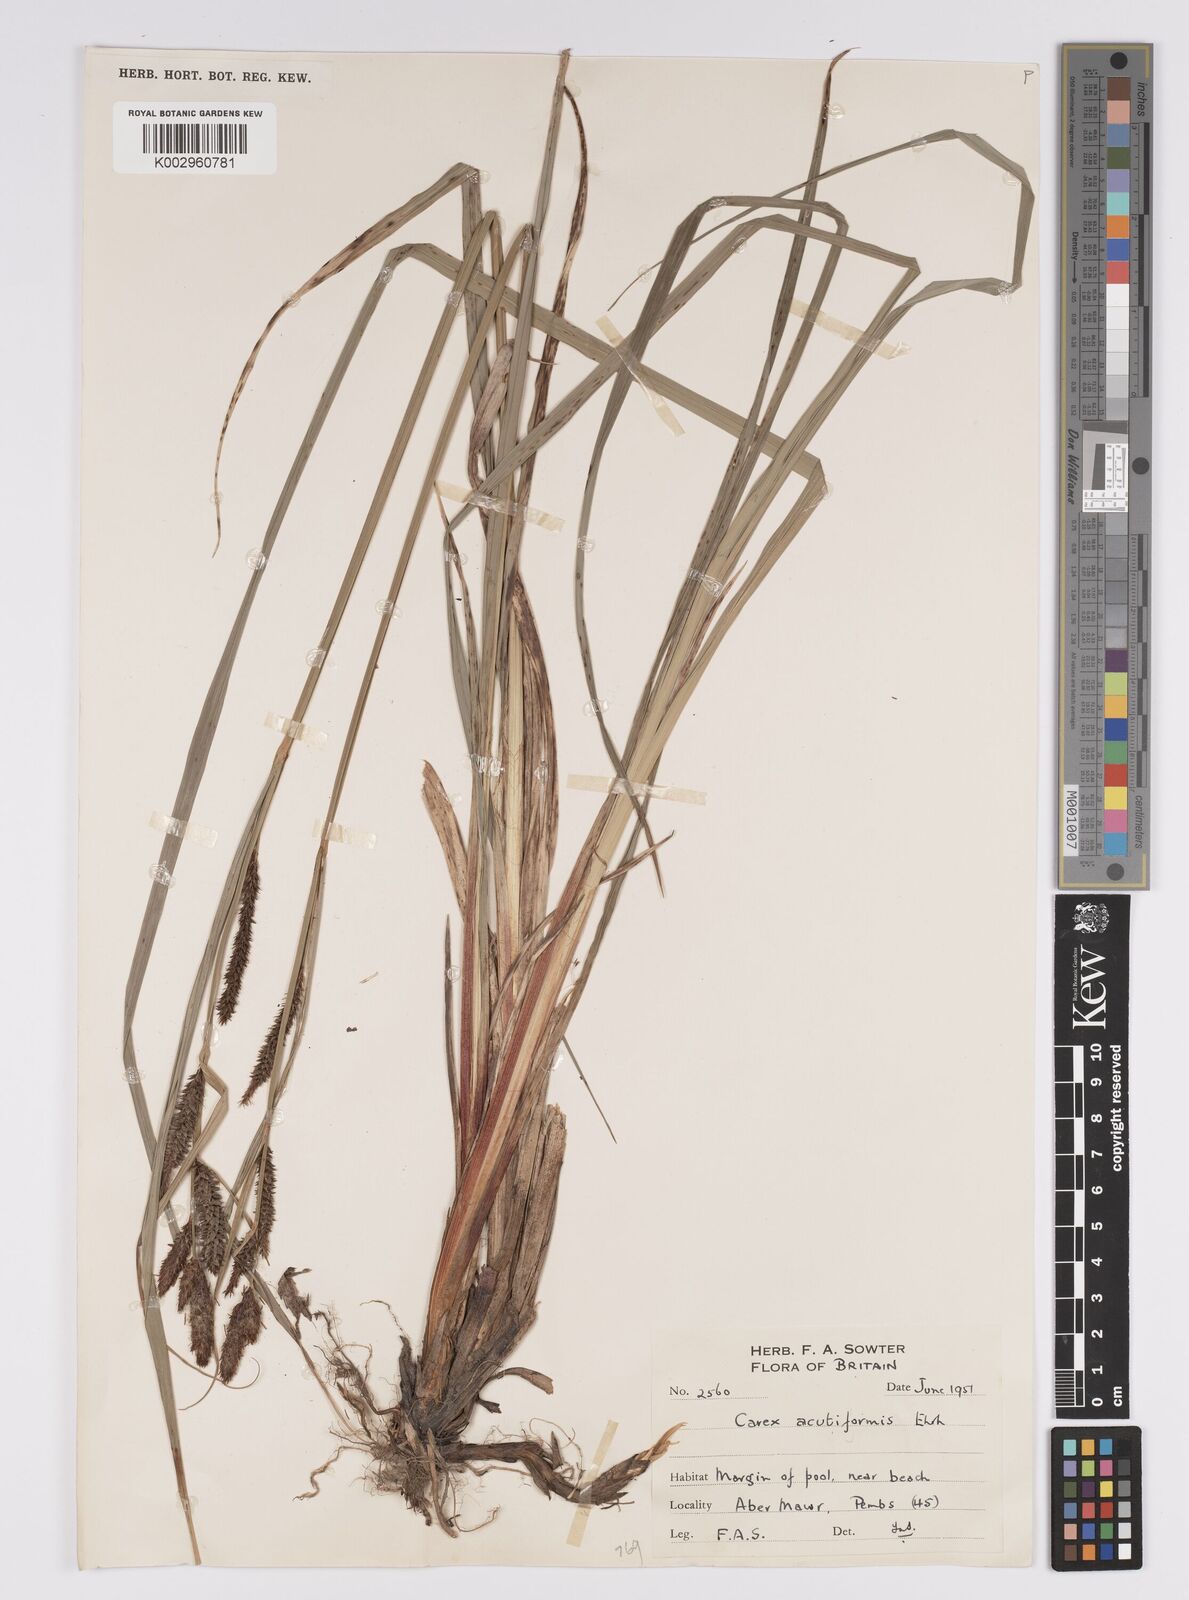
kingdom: Plantae
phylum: Tracheophyta
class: Liliopsida
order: Poales
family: Cyperaceae
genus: Carex
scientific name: Carex acutiformis
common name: Lesser pond-sedge
